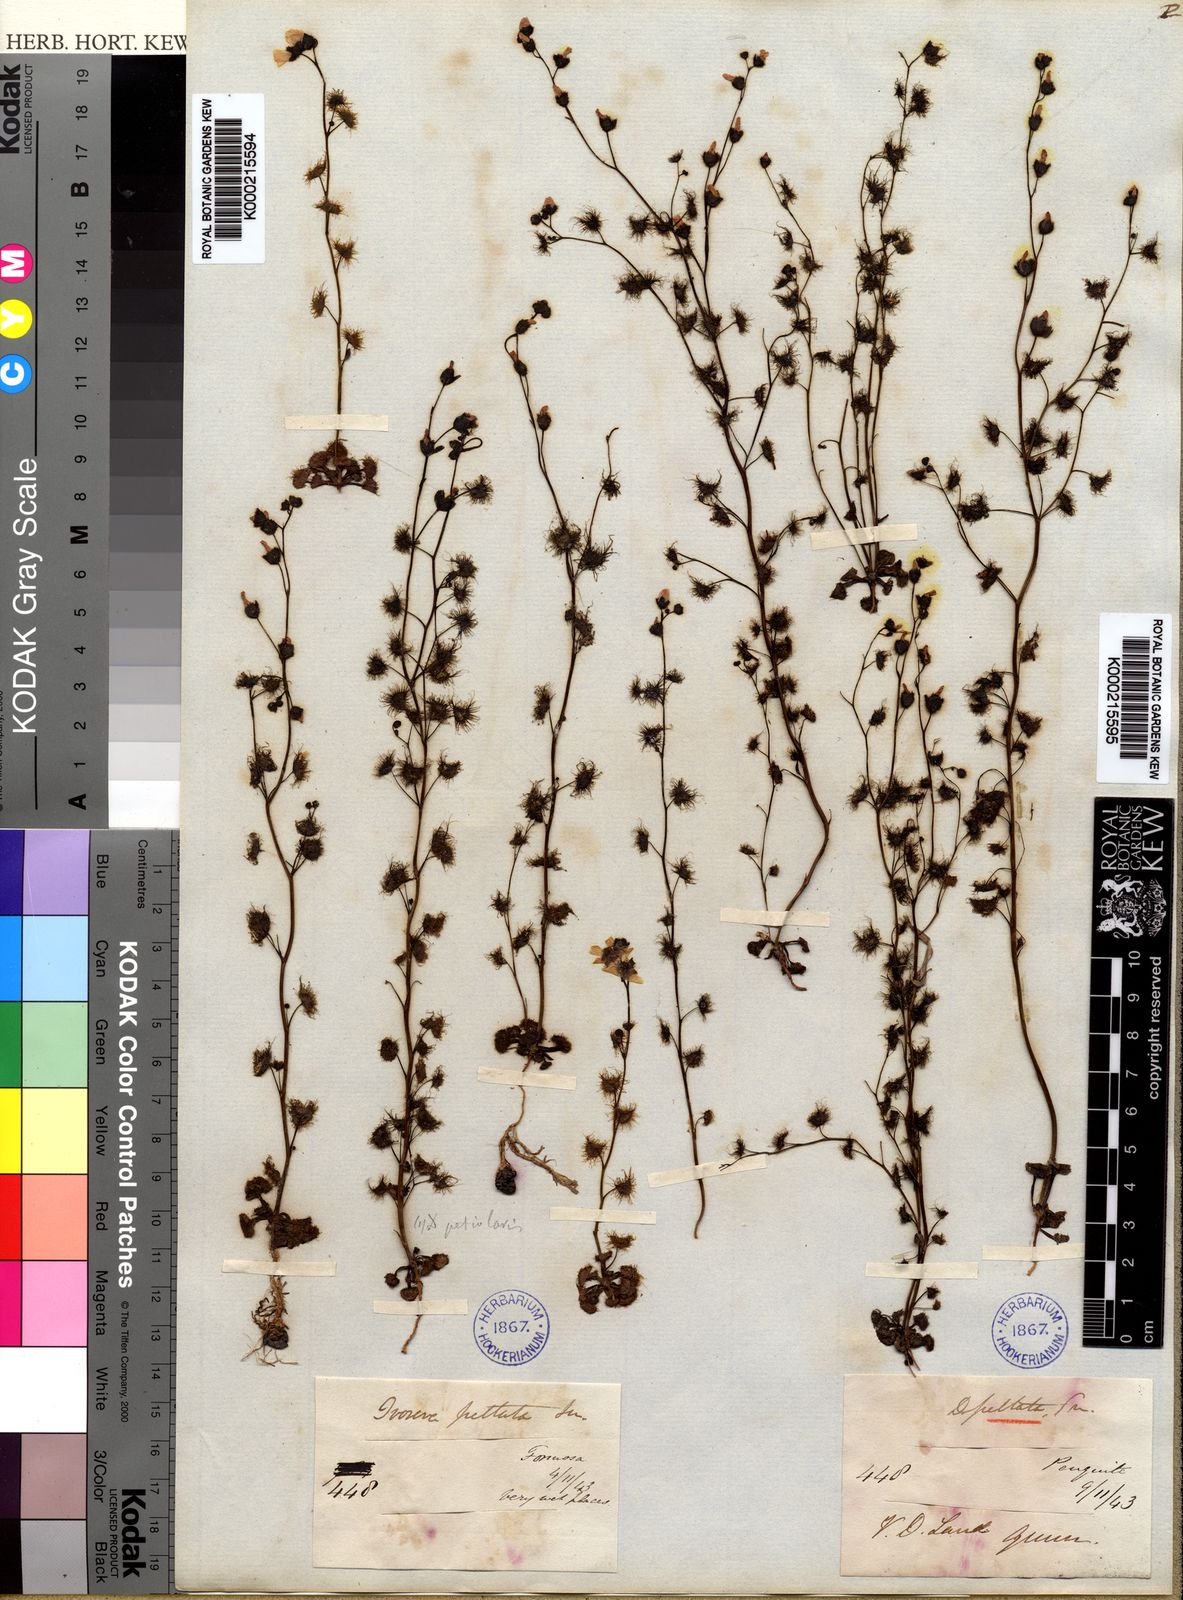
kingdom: Plantae
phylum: Tracheophyta
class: Magnoliopsida
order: Caryophyllales
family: Droseraceae
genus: Drosera
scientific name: Drosera peltata
